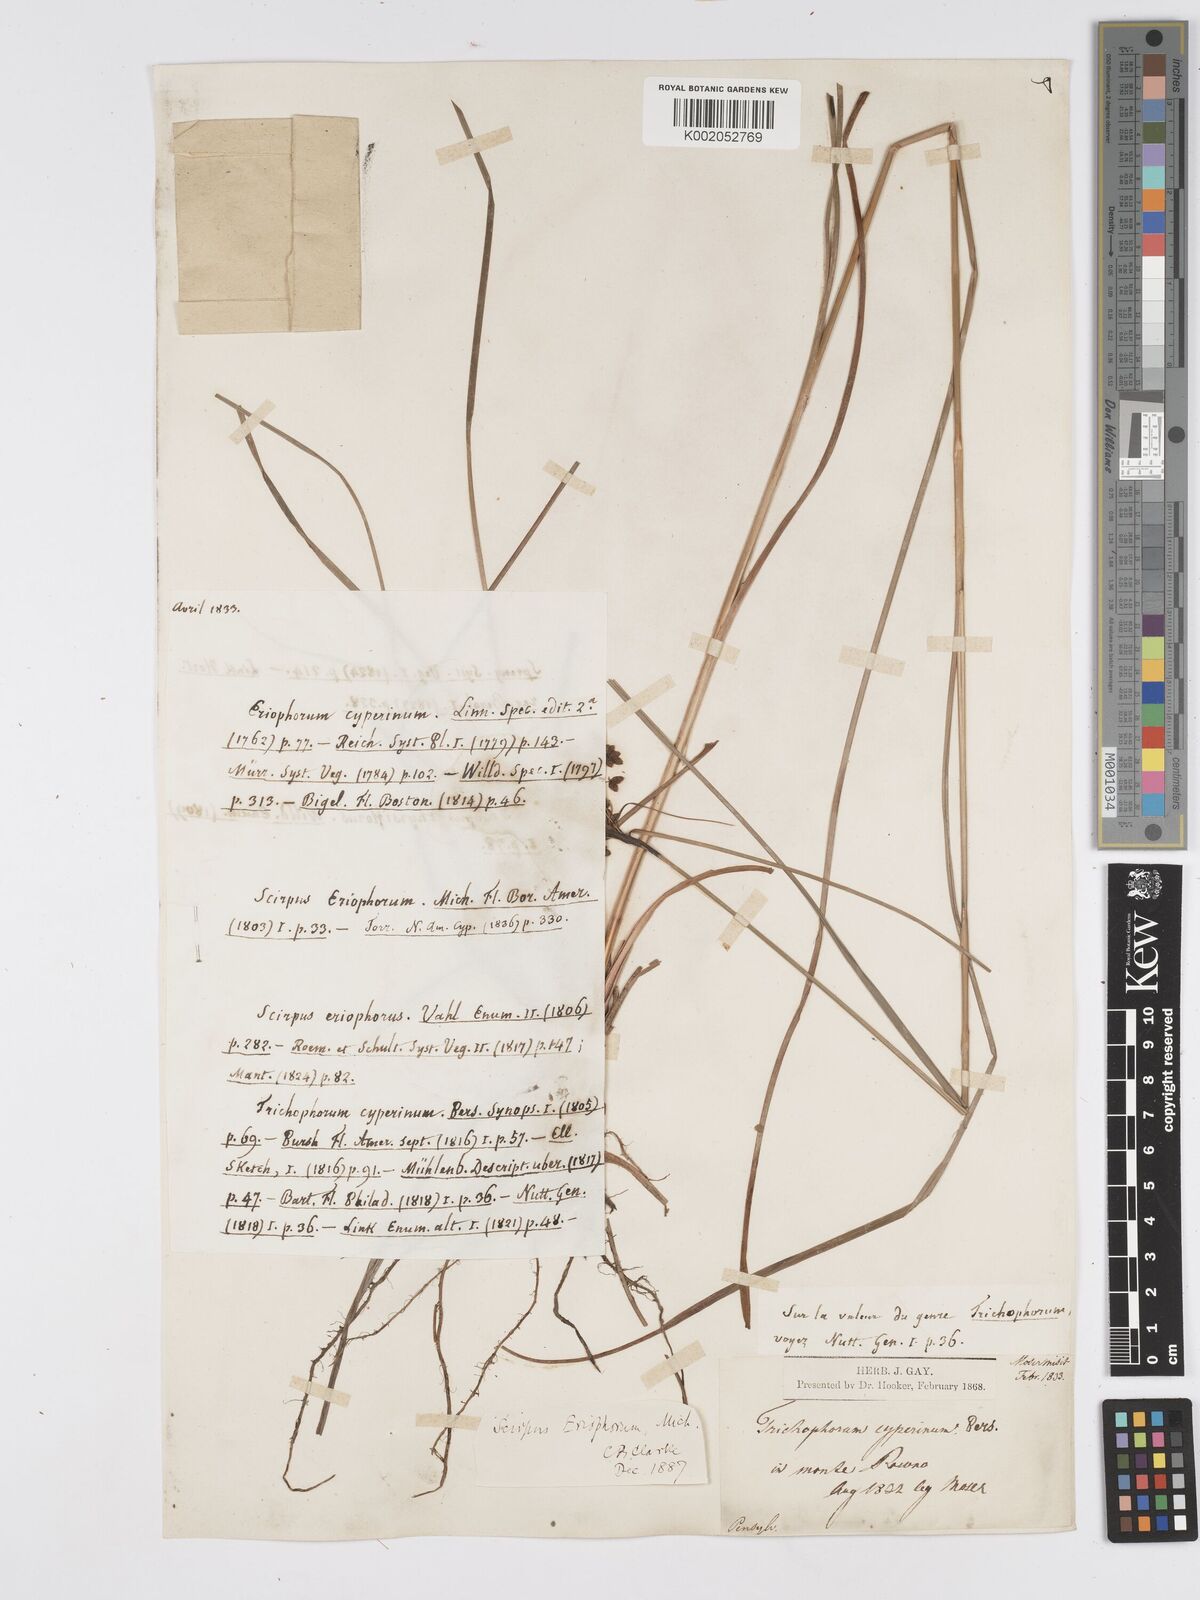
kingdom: Plantae
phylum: Tracheophyta
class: Liliopsida
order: Poales
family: Cyperaceae
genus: Scirpus
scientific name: Scirpus cyperinus
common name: Black-sheathed bulrush
